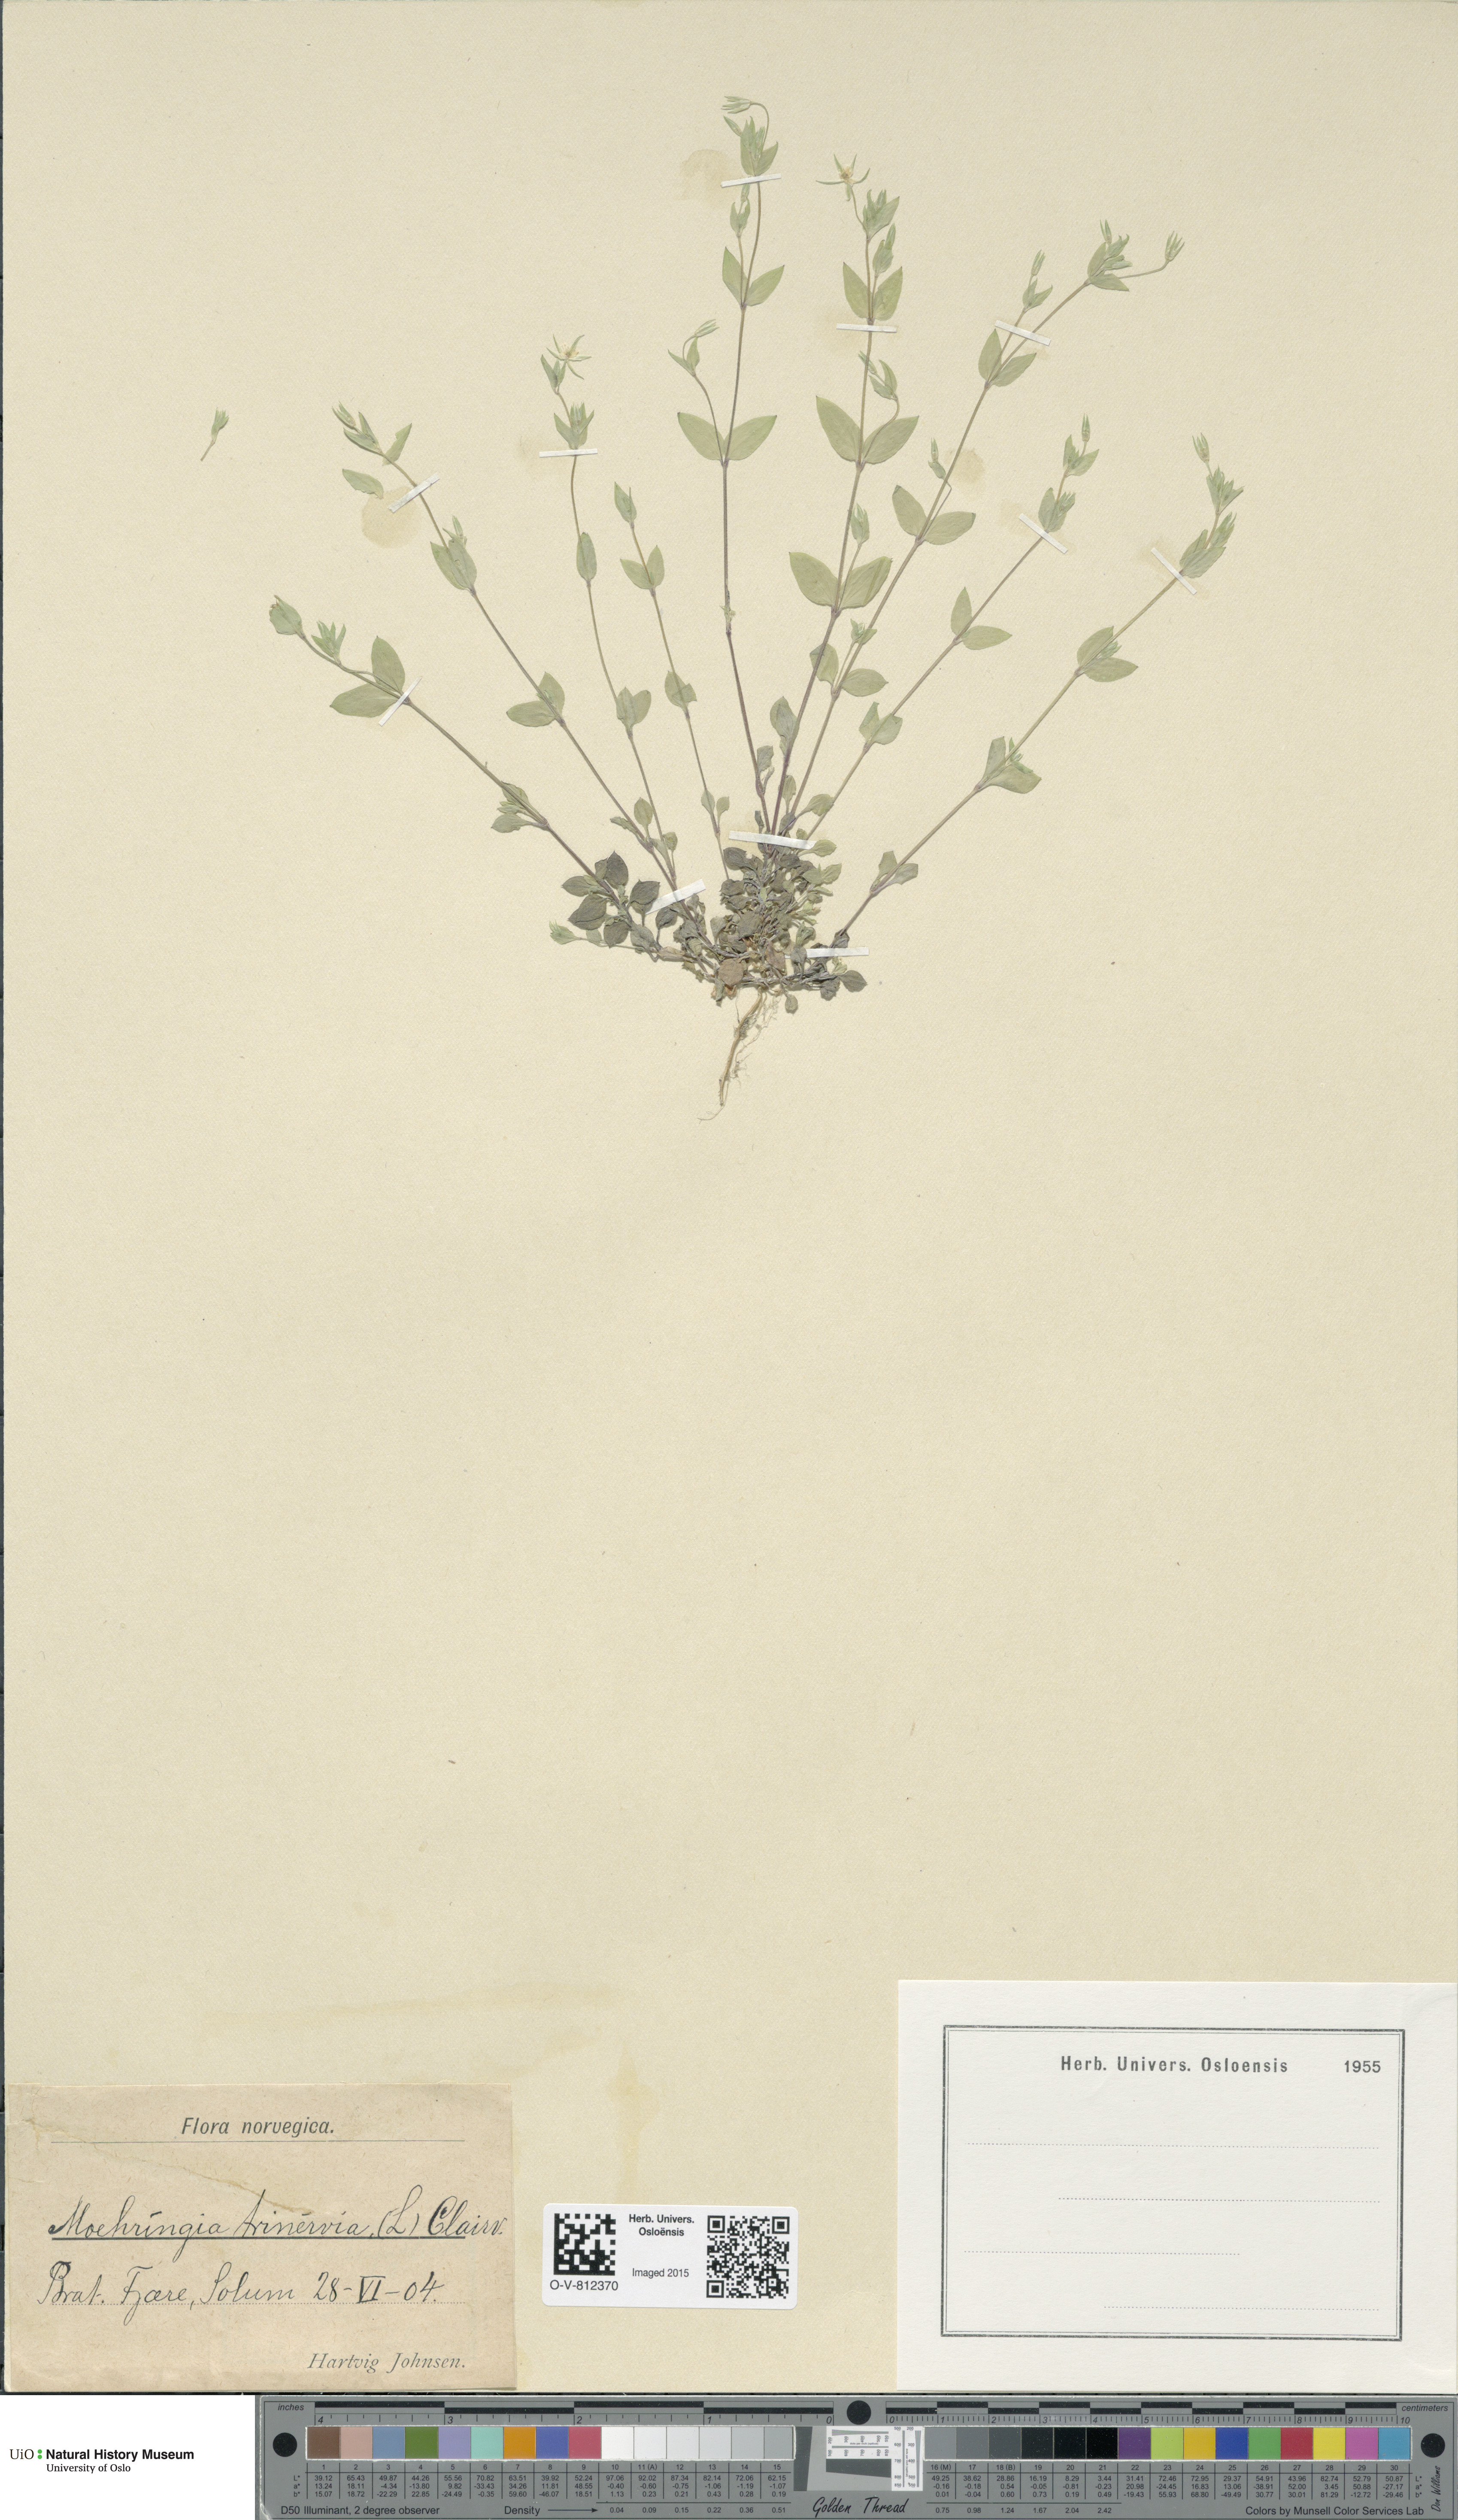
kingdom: Plantae
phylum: Tracheophyta
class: Magnoliopsida
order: Caryophyllales
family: Caryophyllaceae
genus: Moehringia
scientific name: Moehringia trinervia
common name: Three-nerved sandwort
